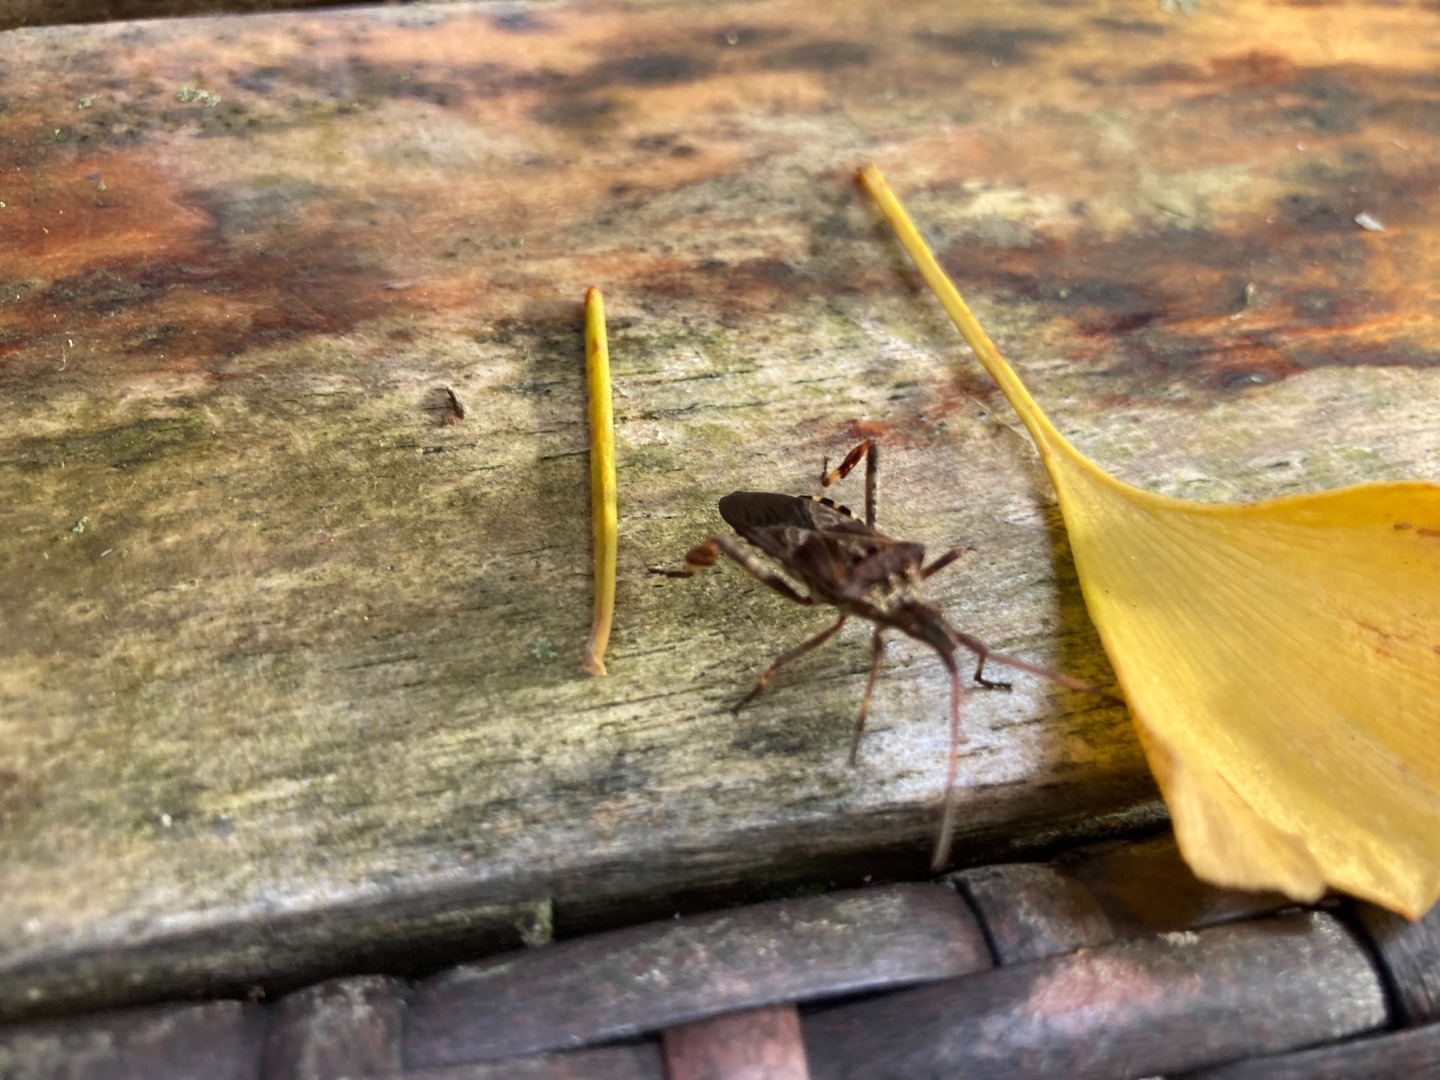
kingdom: Animalia
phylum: Arthropoda
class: Insecta
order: Hemiptera
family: Coreidae
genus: Leptoglossus
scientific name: Leptoglossus occidentalis
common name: Amerikansk fyrretæge
